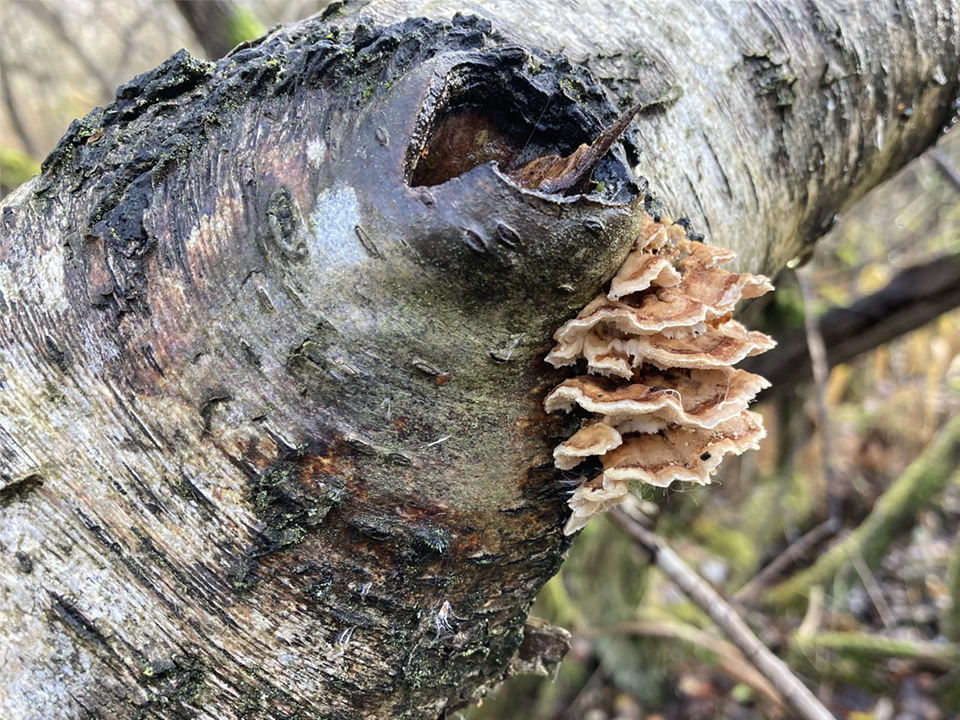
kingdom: Fungi
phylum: Basidiomycota
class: Agaricomycetes
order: Polyporales
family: Polyporaceae
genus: Trametes
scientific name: Trametes ochracea
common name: bæltet læderporesvamp
